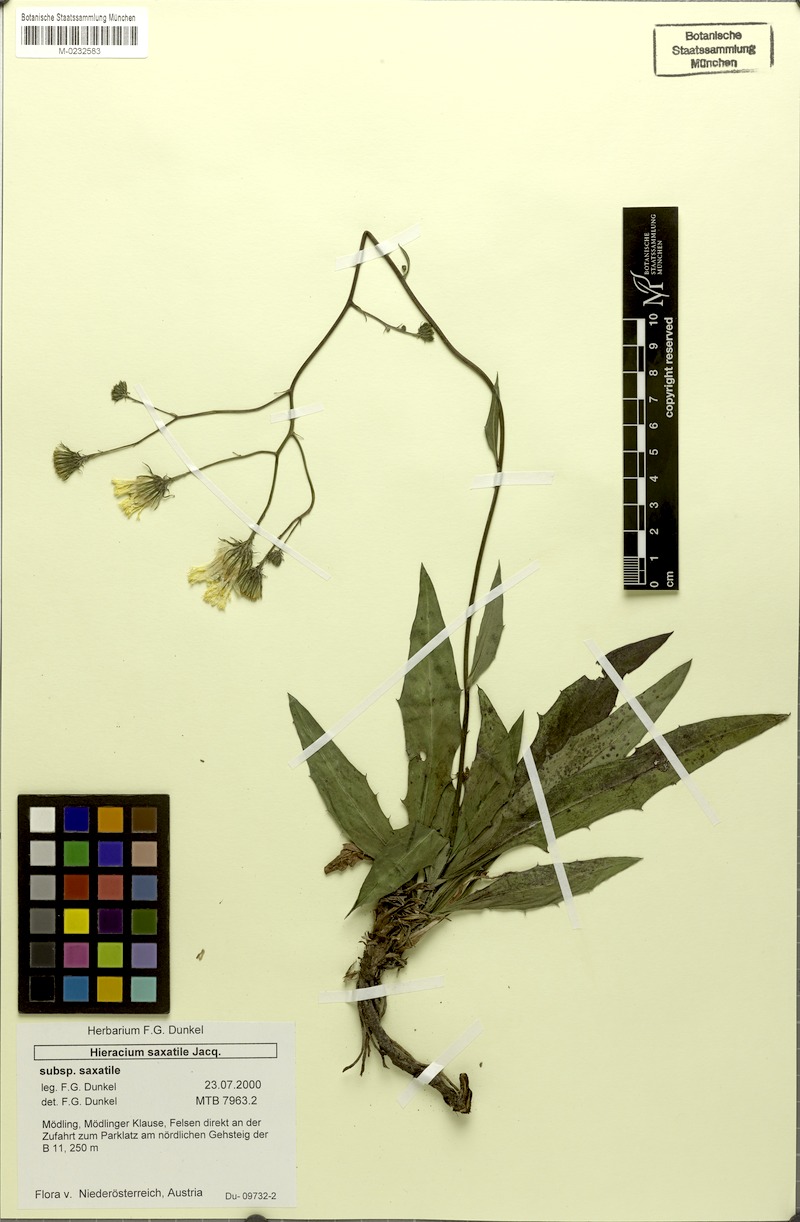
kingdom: Plantae
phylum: Tracheophyta
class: Magnoliopsida
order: Asterales
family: Asteraceae
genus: Hieracium
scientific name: Hieracium saxatile
